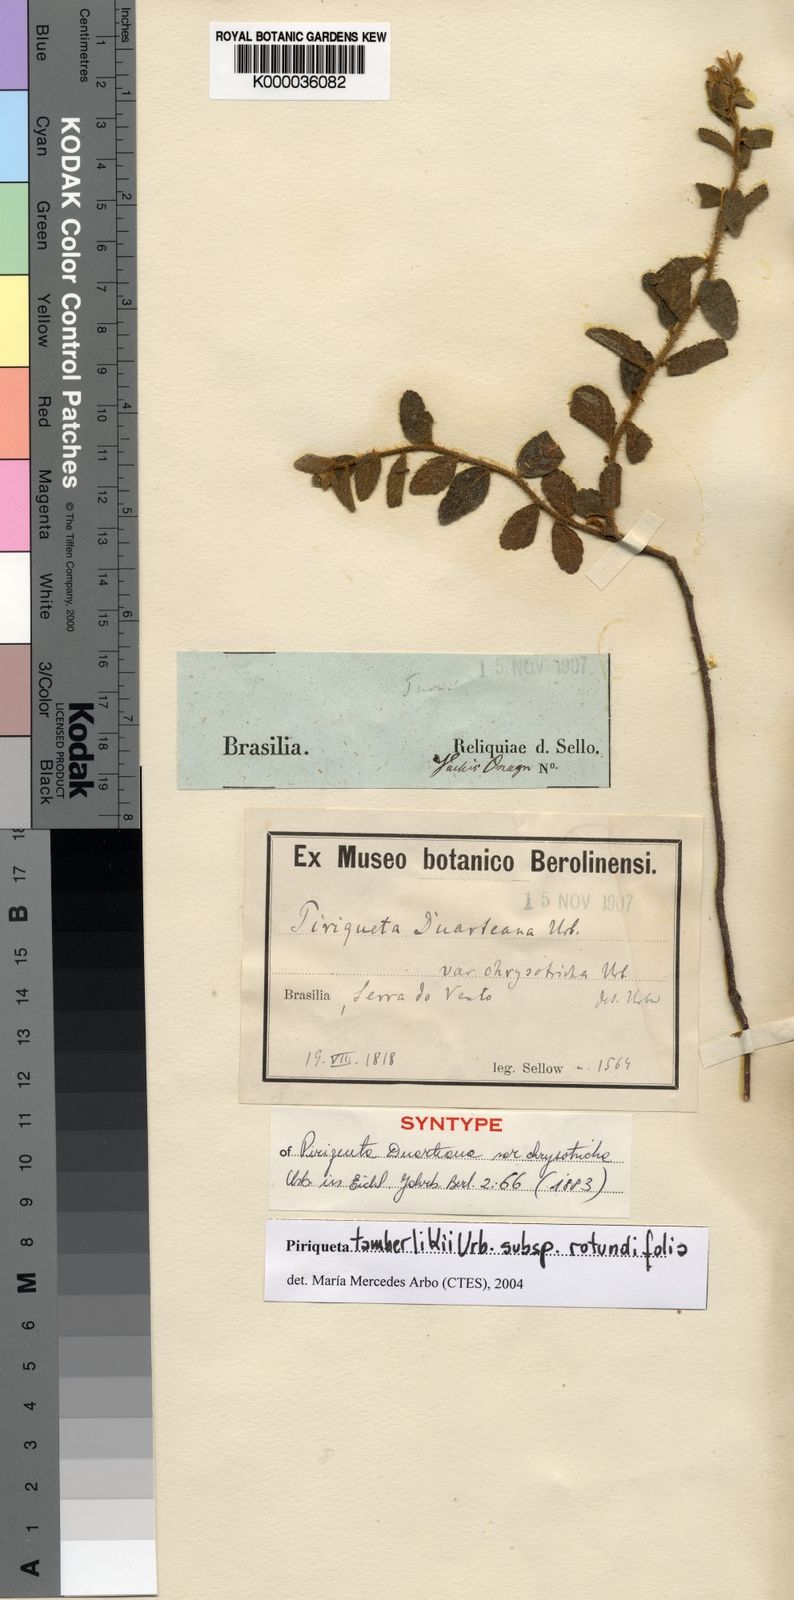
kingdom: Plantae
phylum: Tracheophyta
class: Magnoliopsida
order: Malpighiales
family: Turneraceae
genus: Piriqueta
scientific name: Piriqueta tamberlikii
